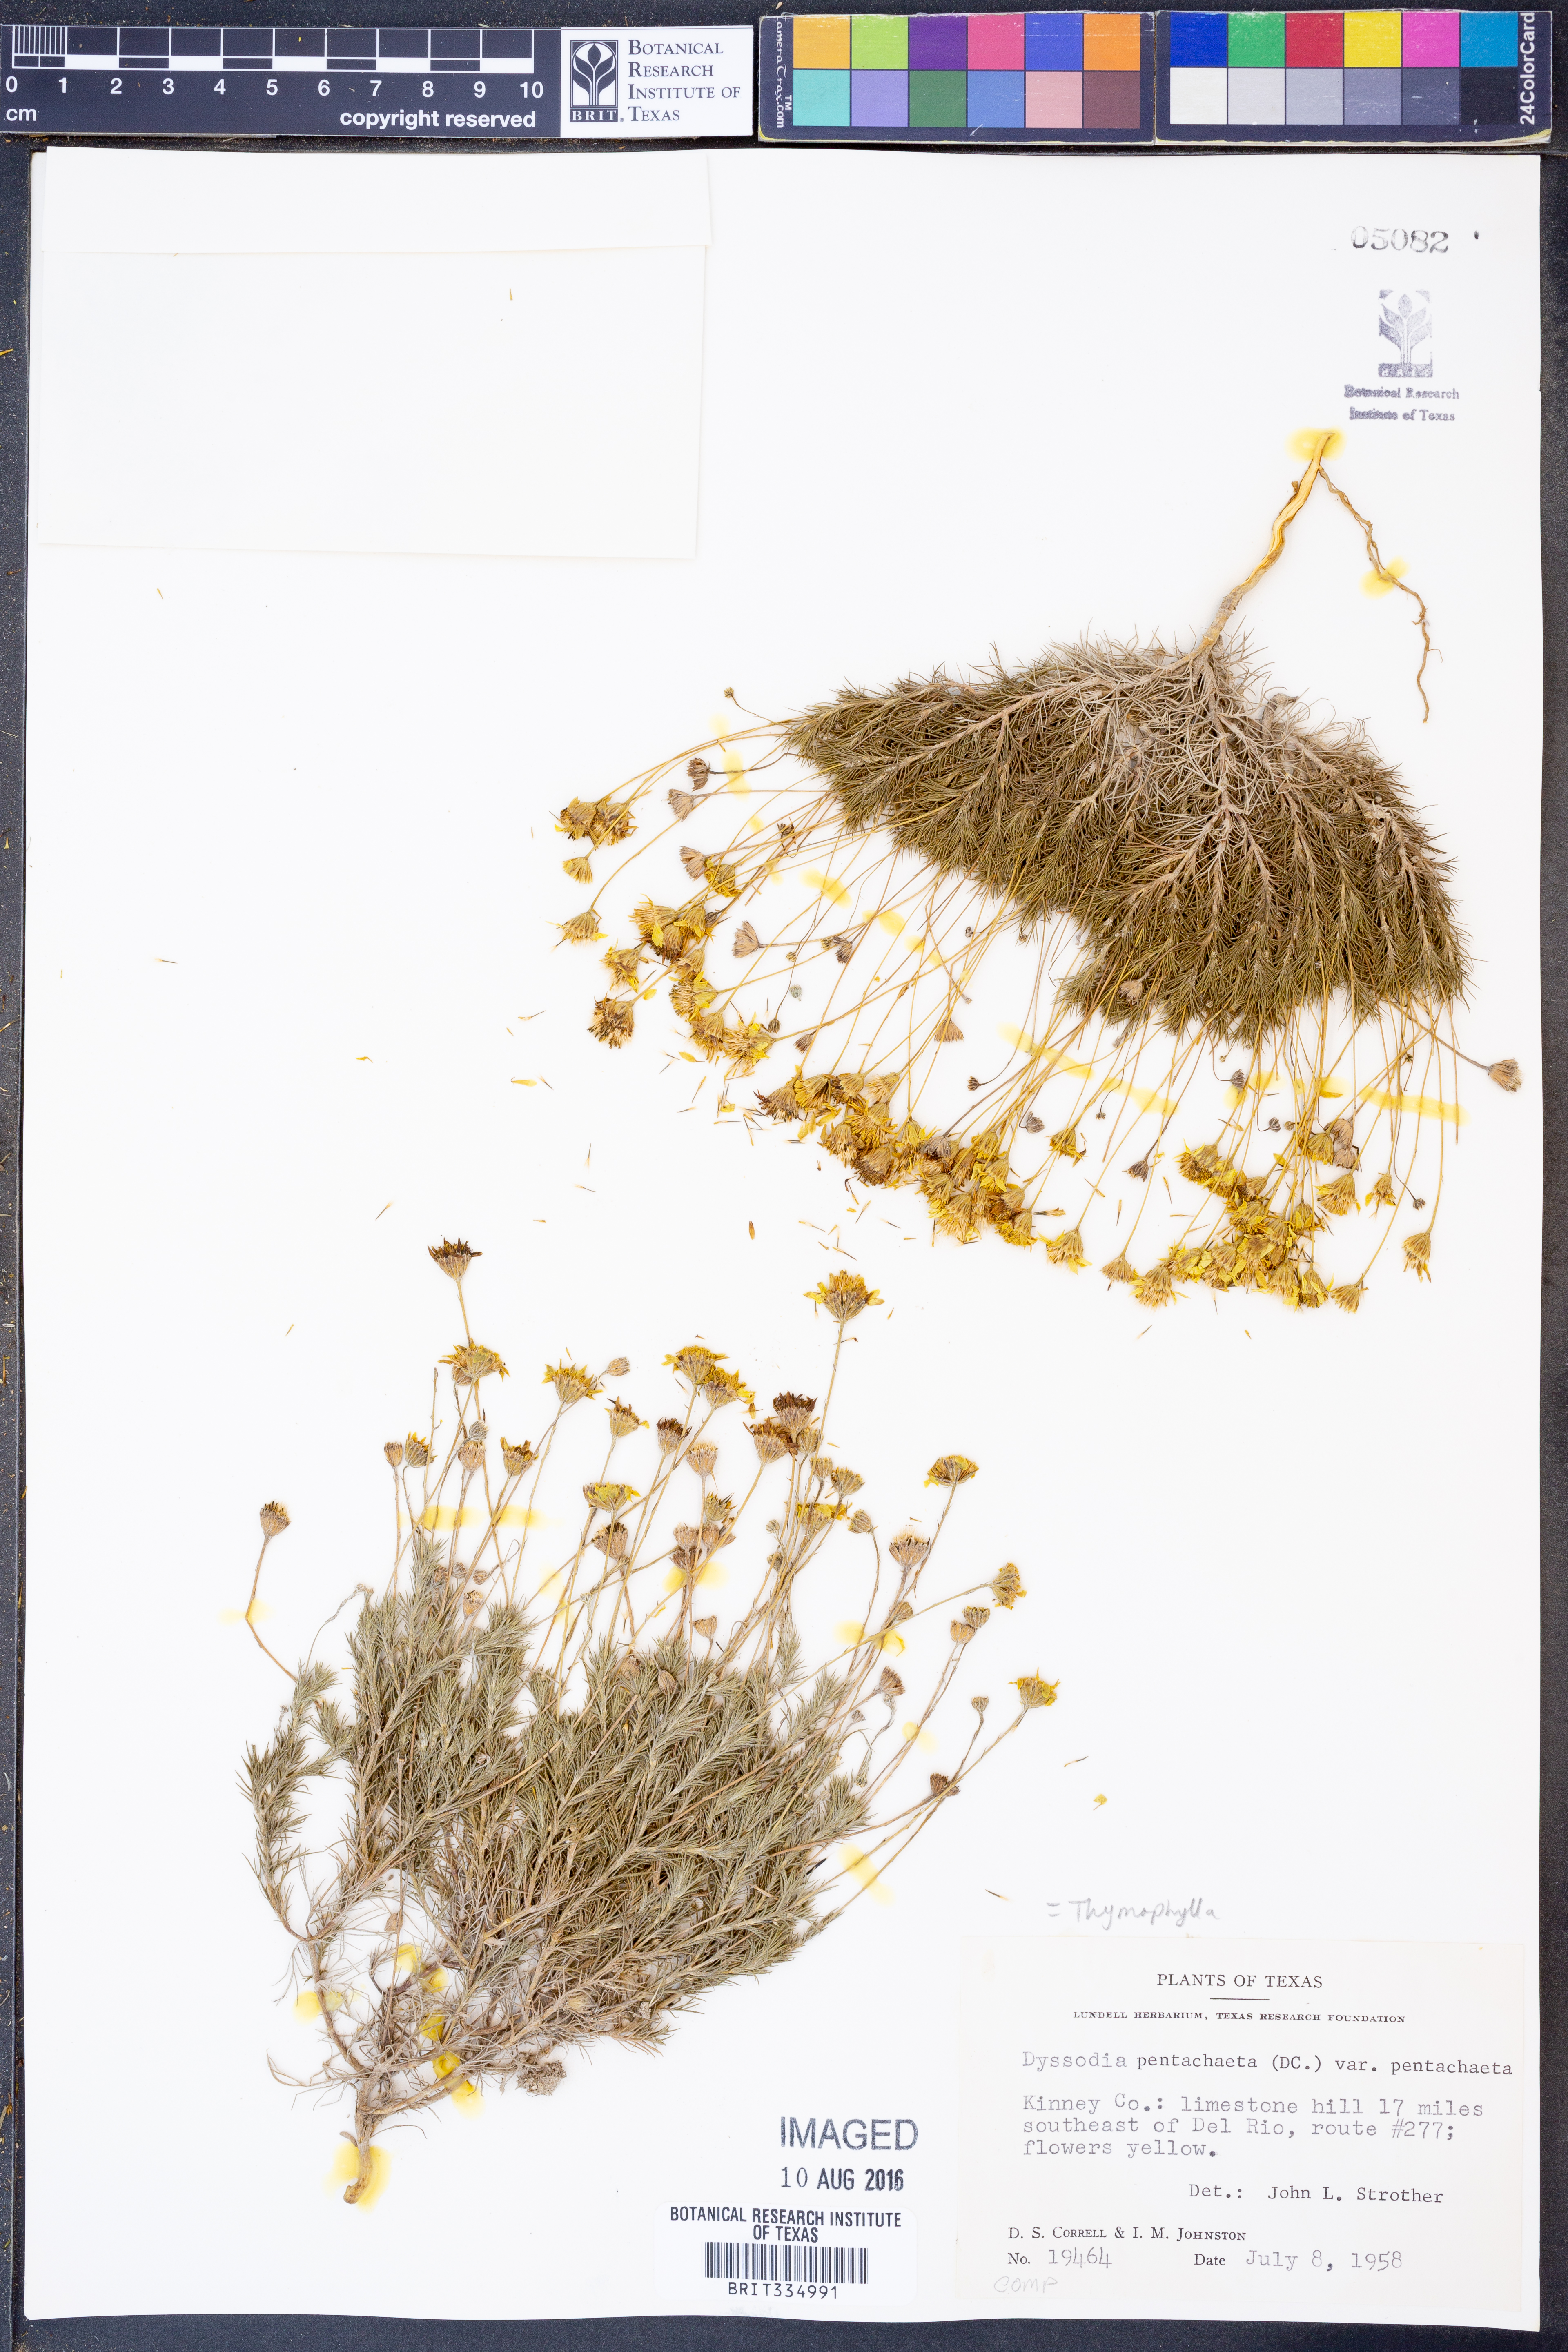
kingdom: Plantae
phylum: Tracheophyta
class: Magnoliopsida
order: Asterales
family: Asteraceae
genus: Thymophylla
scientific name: Thymophylla pentachaeta
